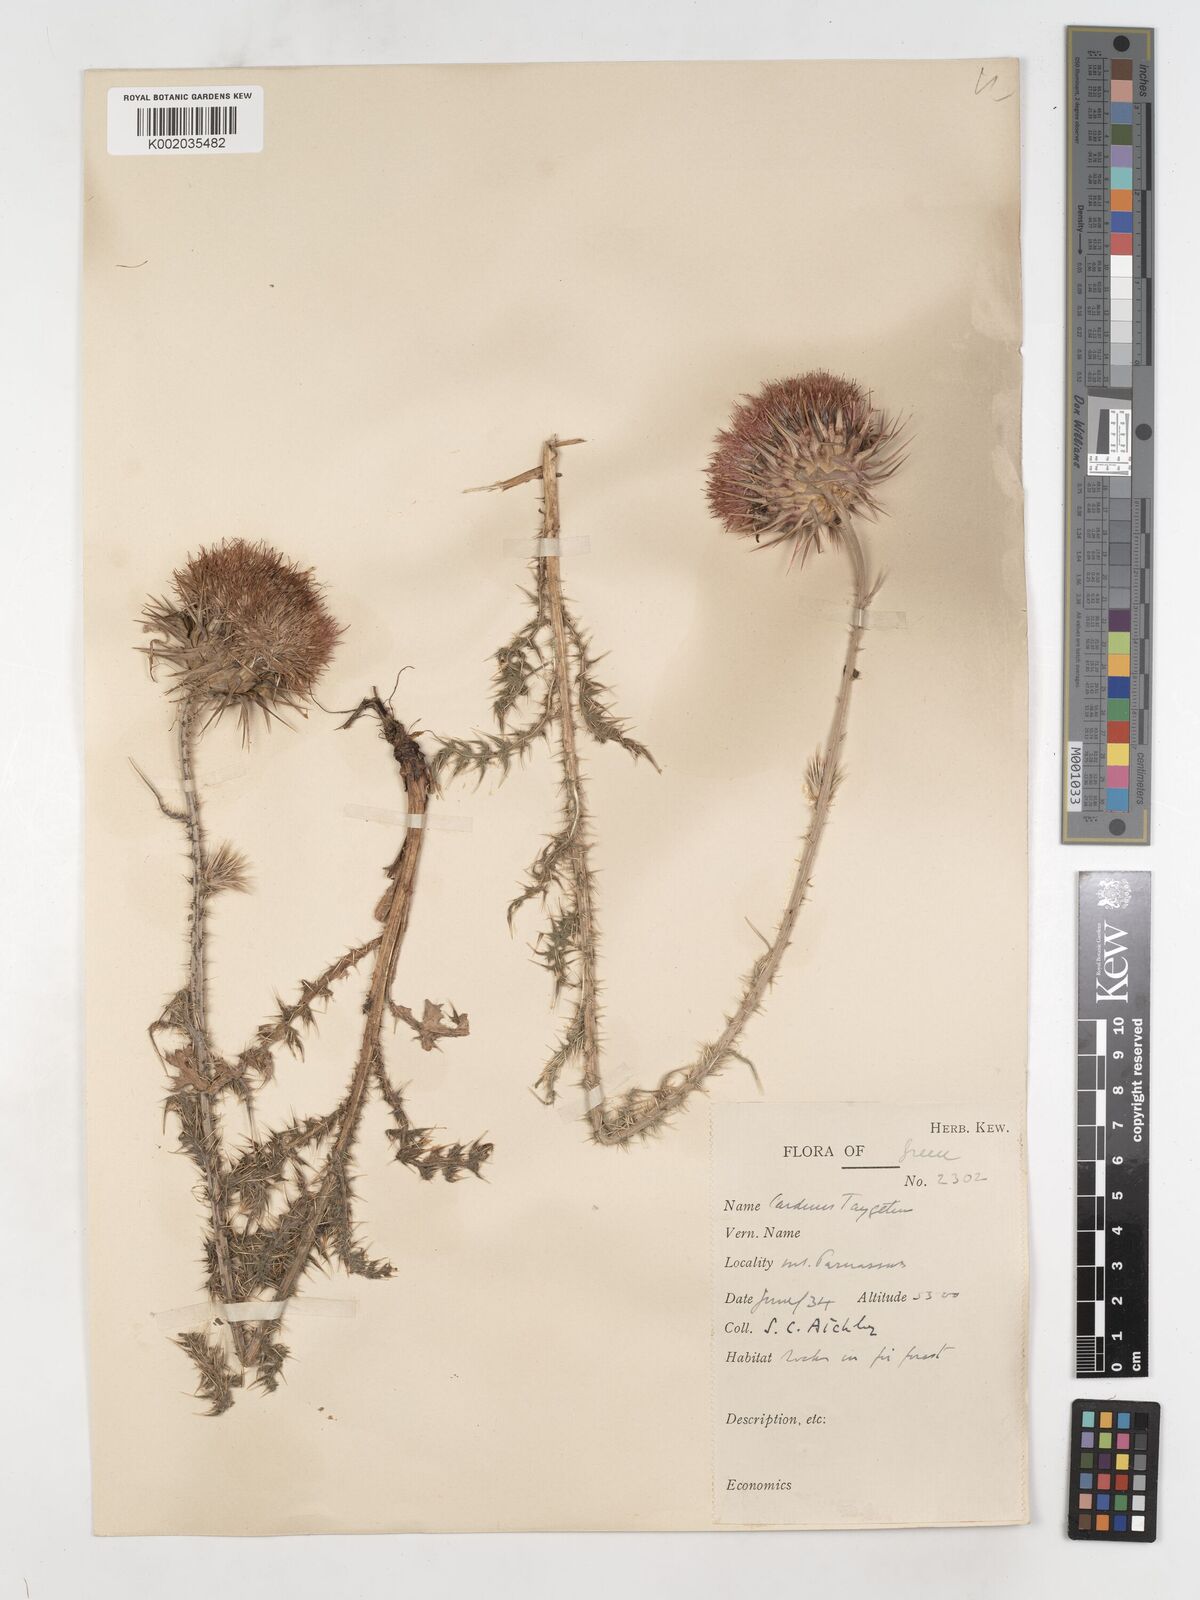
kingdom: Plantae
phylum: Tracheophyta
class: Magnoliopsida
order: Asterales
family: Asteraceae
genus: Carduus
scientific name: Carduus nutans
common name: Musk thistle
